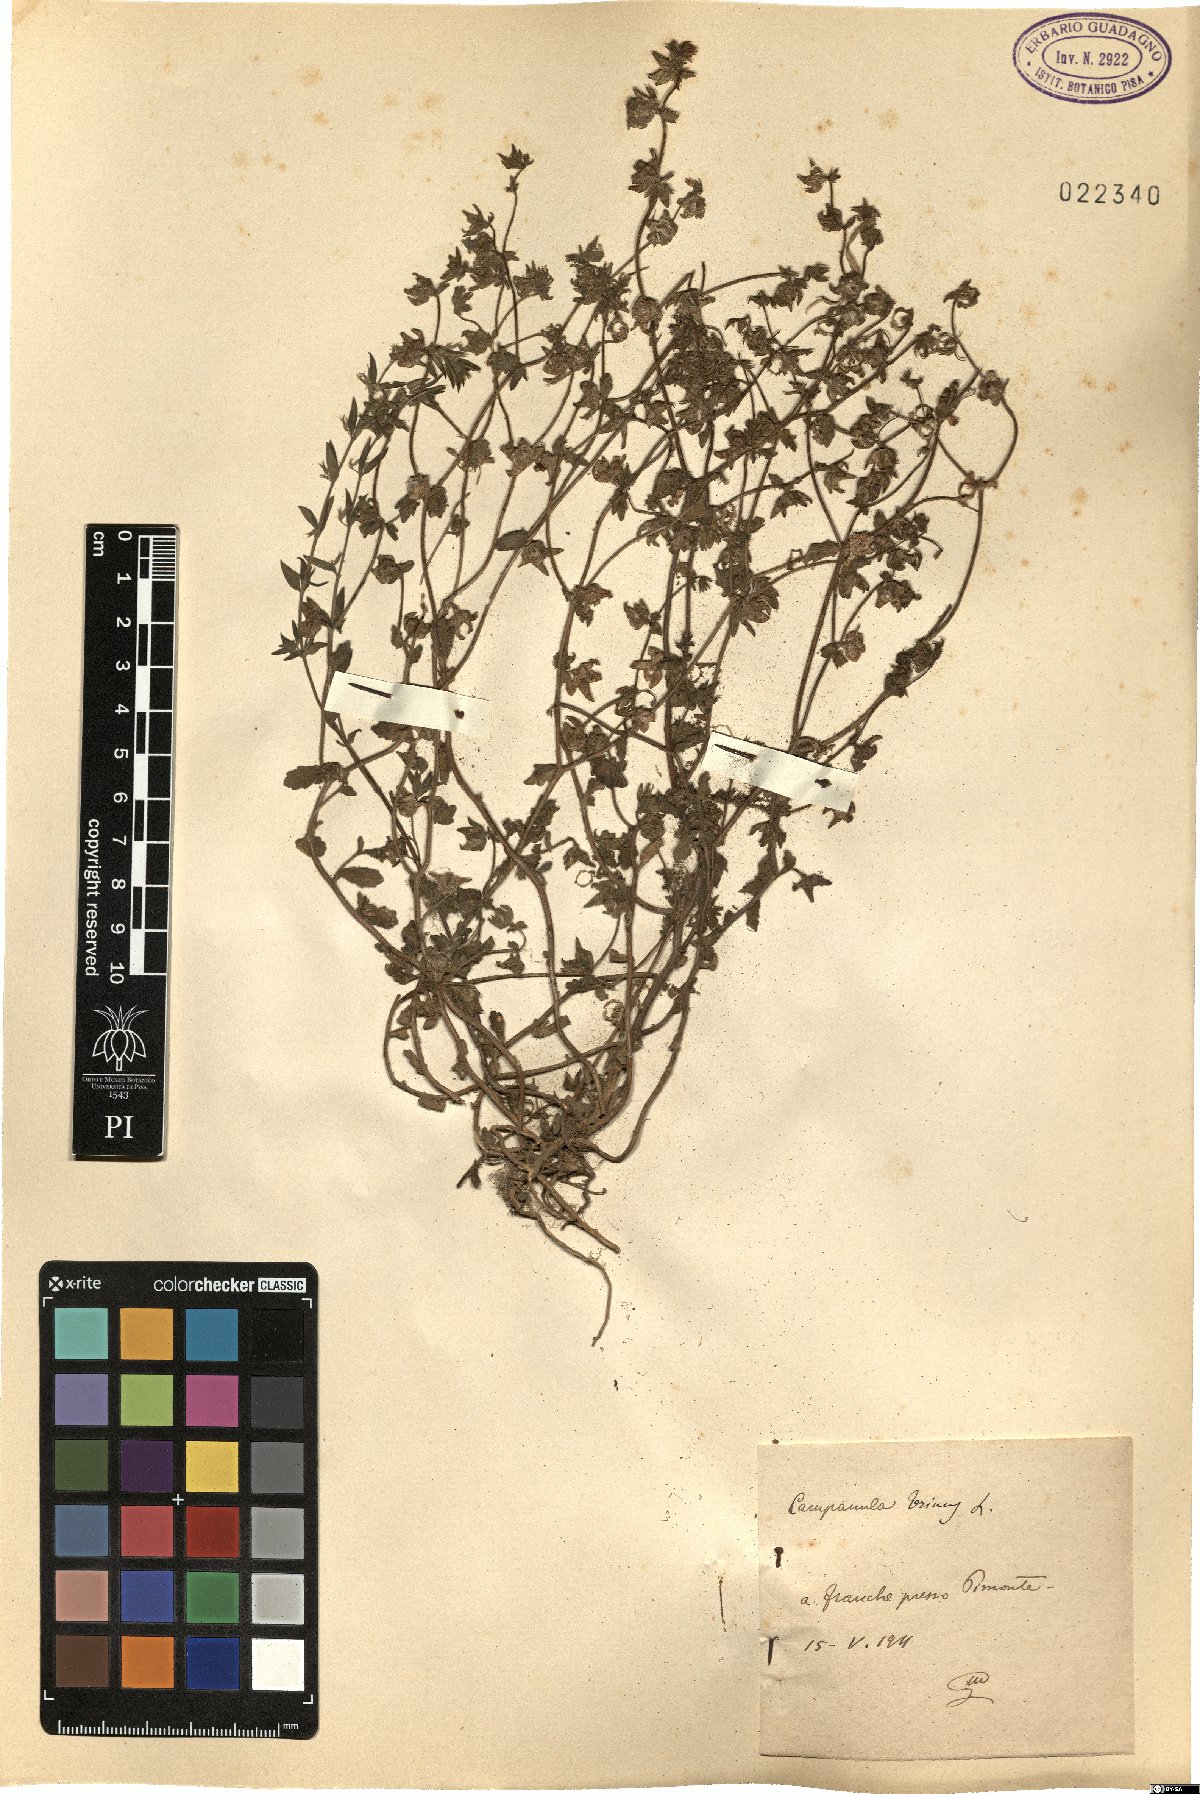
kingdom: Plantae
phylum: Tracheophyta
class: Magnoliopsida
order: Asterales
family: Campanulaceae
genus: Campanula
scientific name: Campanula erinus
